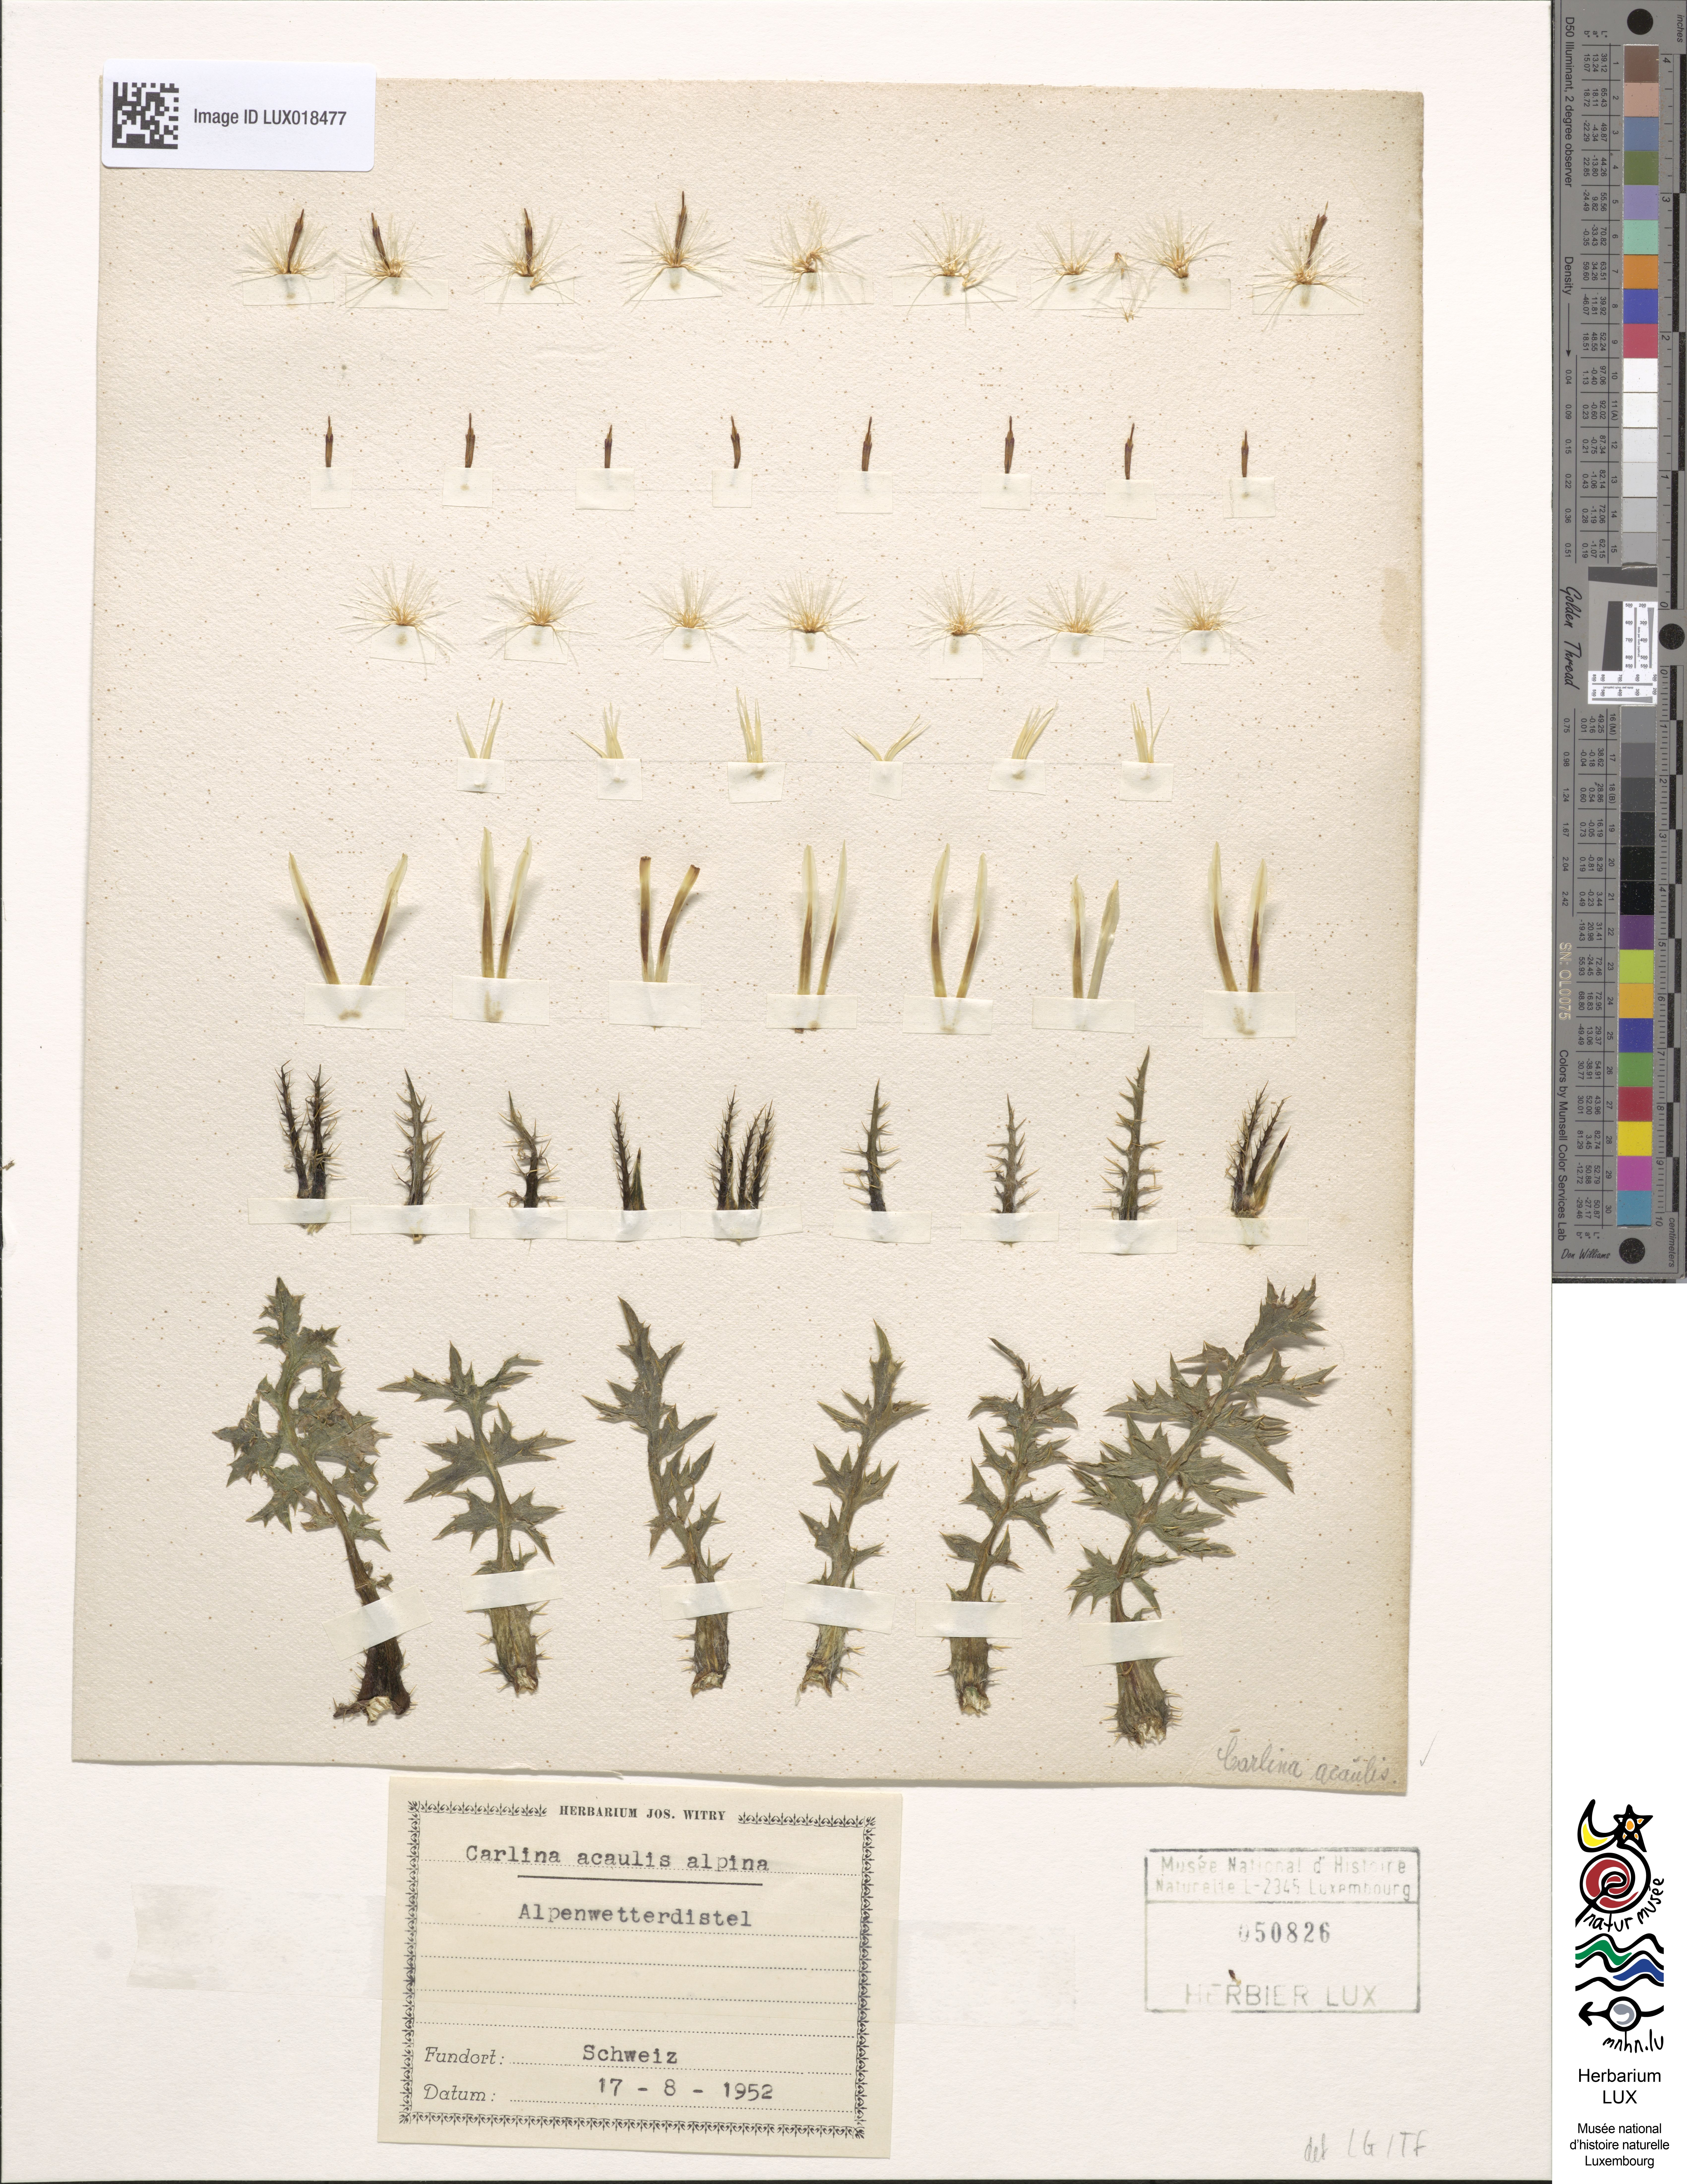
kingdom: Plantae
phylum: Tracheophyta
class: Magnoliopsida
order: Asterales
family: Asteraceae
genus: Carlina
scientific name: Carlina acaulis
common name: Stemless carline thistle
